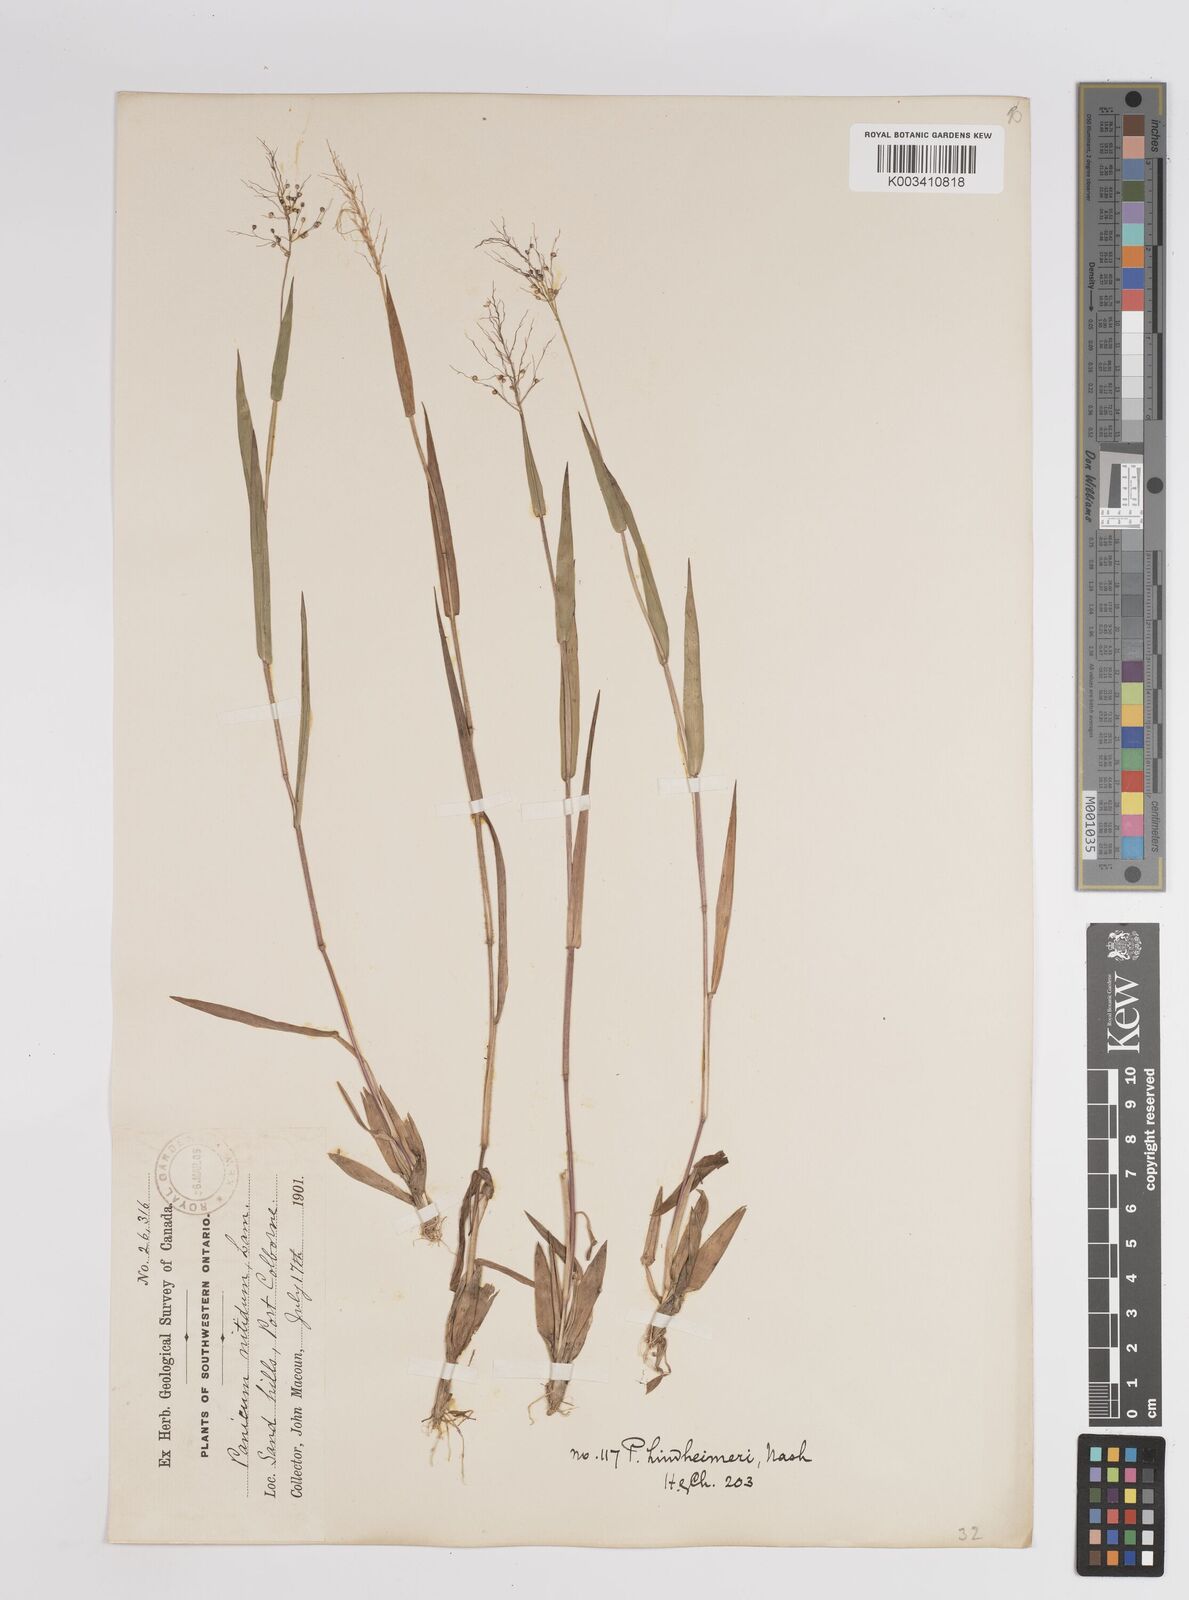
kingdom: Plantae
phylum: Tracheophyta
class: Liliopsida
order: Poales
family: Poaceae
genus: Dichanthelium
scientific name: Dichanthelium acuminatum
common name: Hairy panic grass
